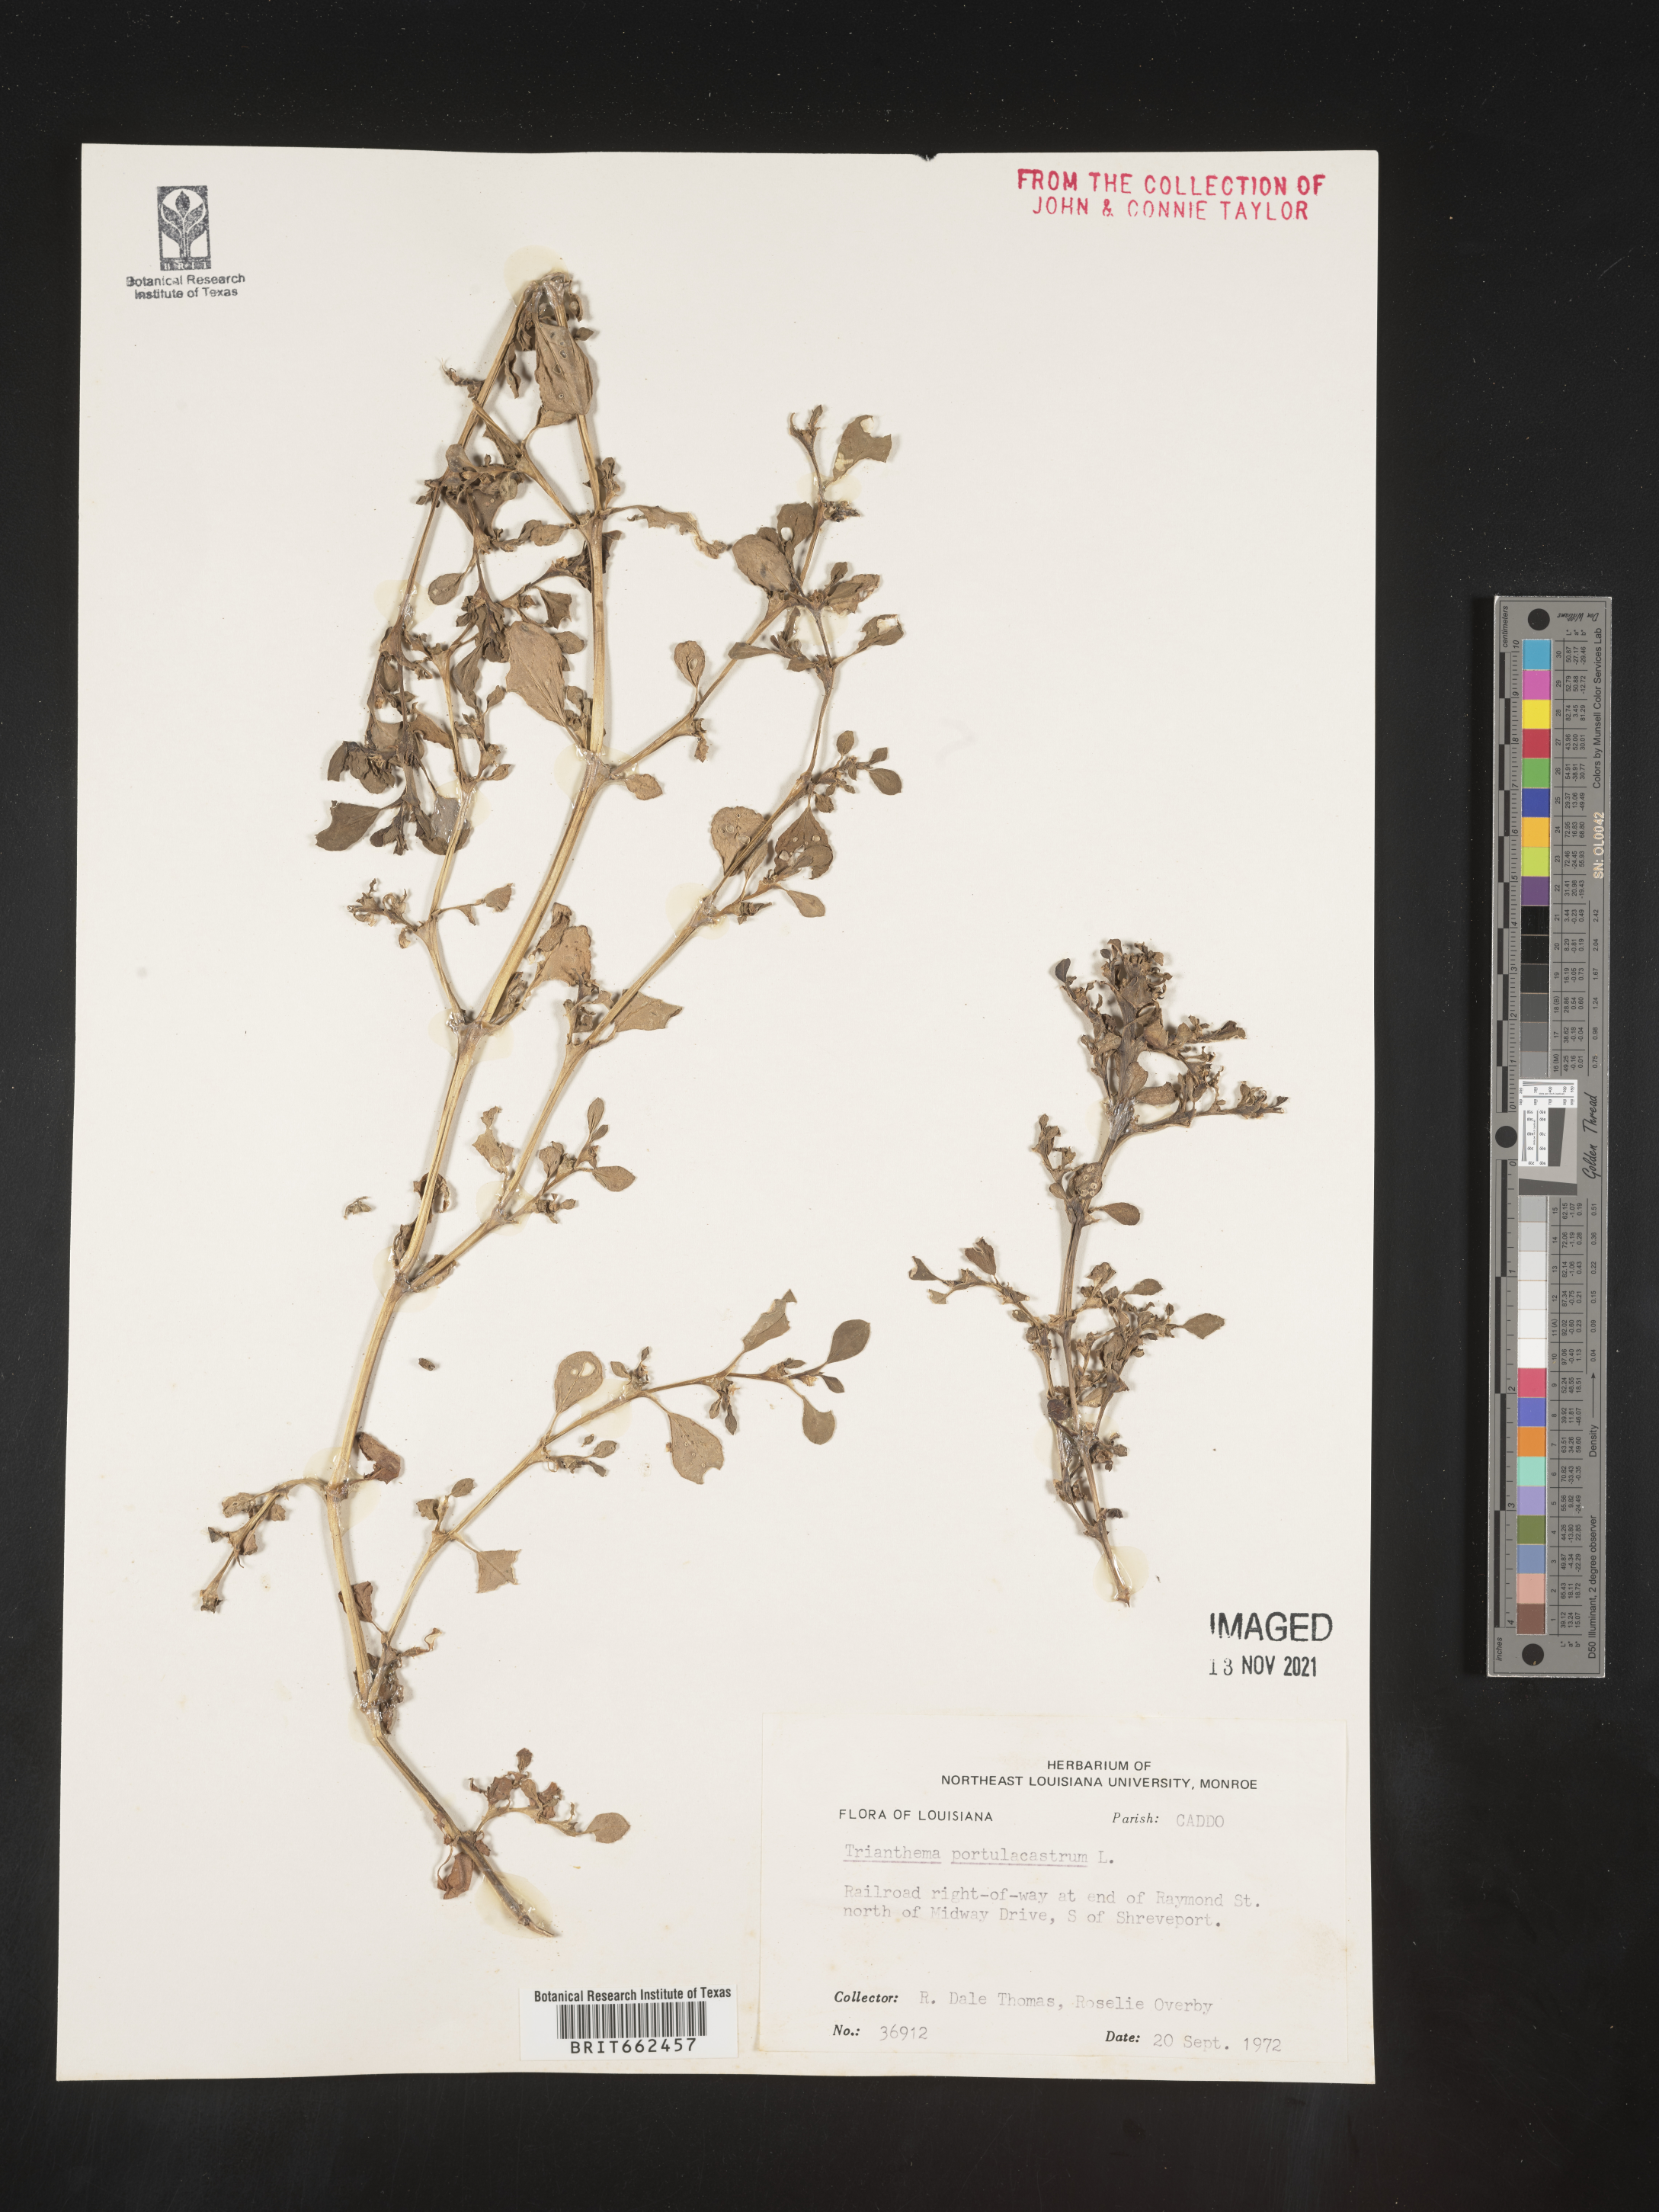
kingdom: Plantae
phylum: Tracheophyta
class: Magnoliopsida
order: Caryophyllales
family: Aizoaceae
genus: Trianthema
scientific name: Trianthema
